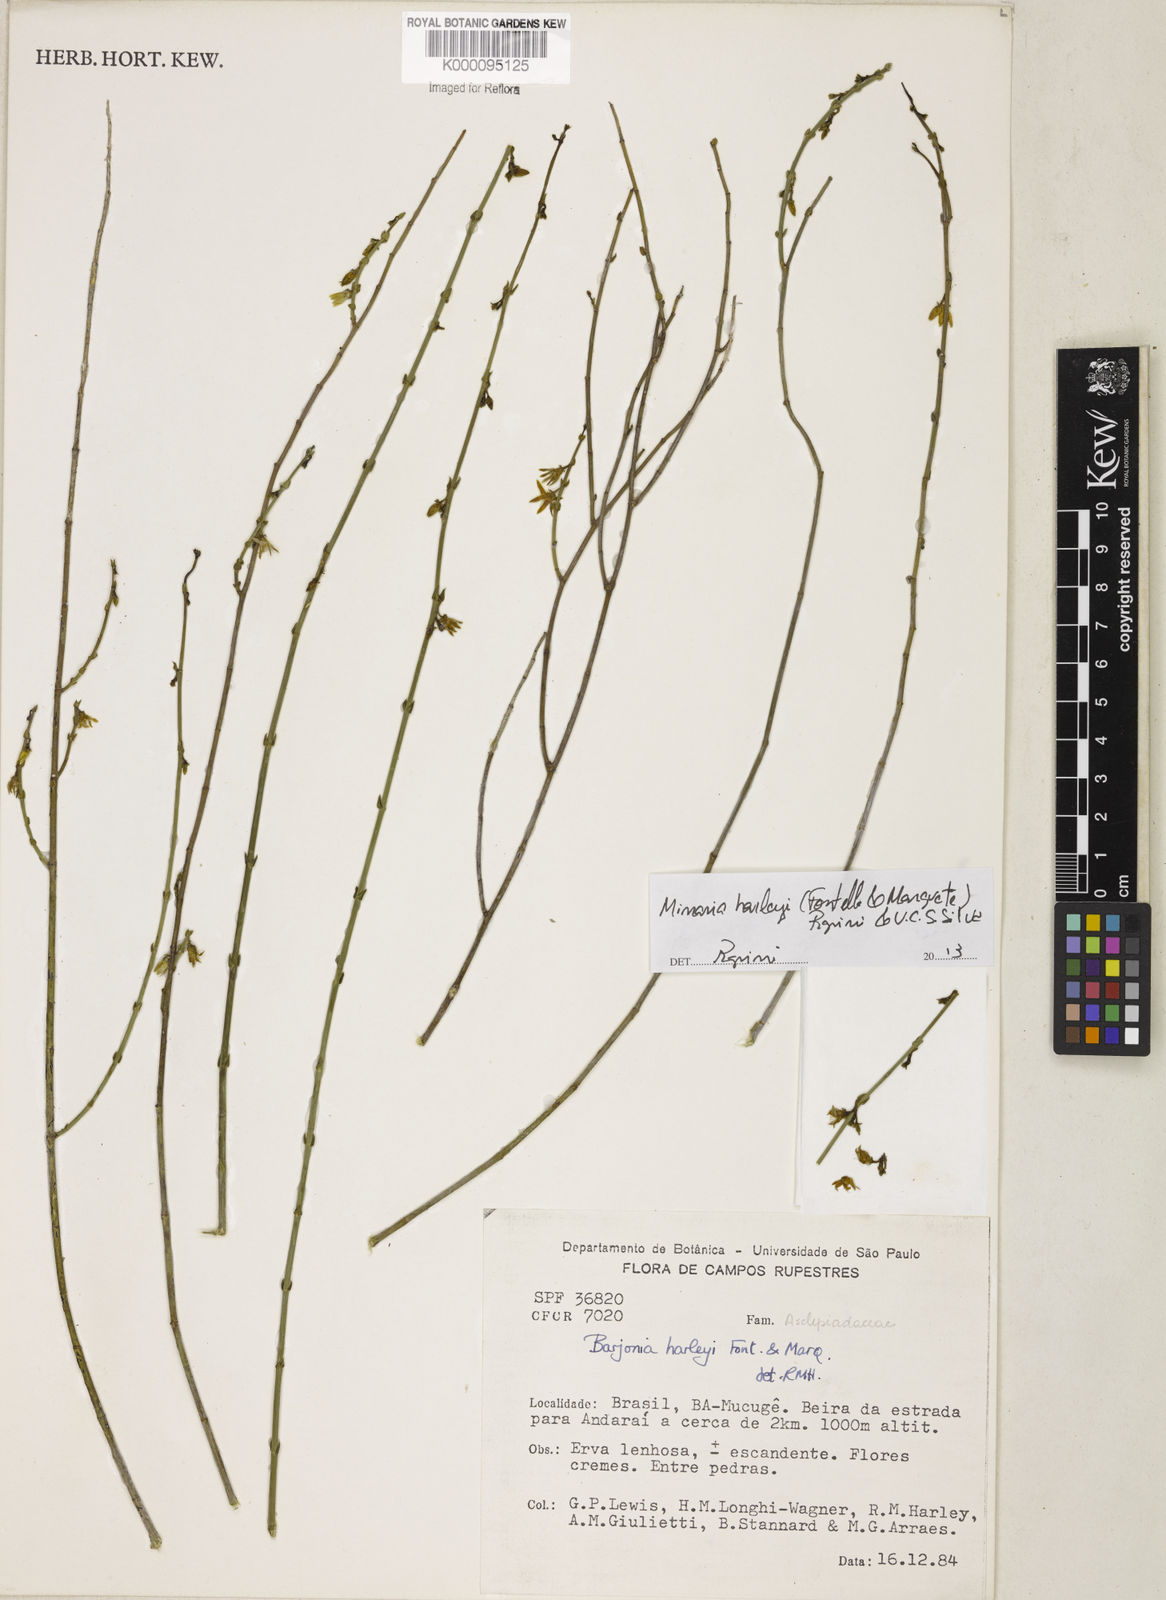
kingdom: Plantae
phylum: Tracheophyta
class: Magnoliopsida
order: Gentianales
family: Apocynaceae
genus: Minaria
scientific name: Minaria cordata
